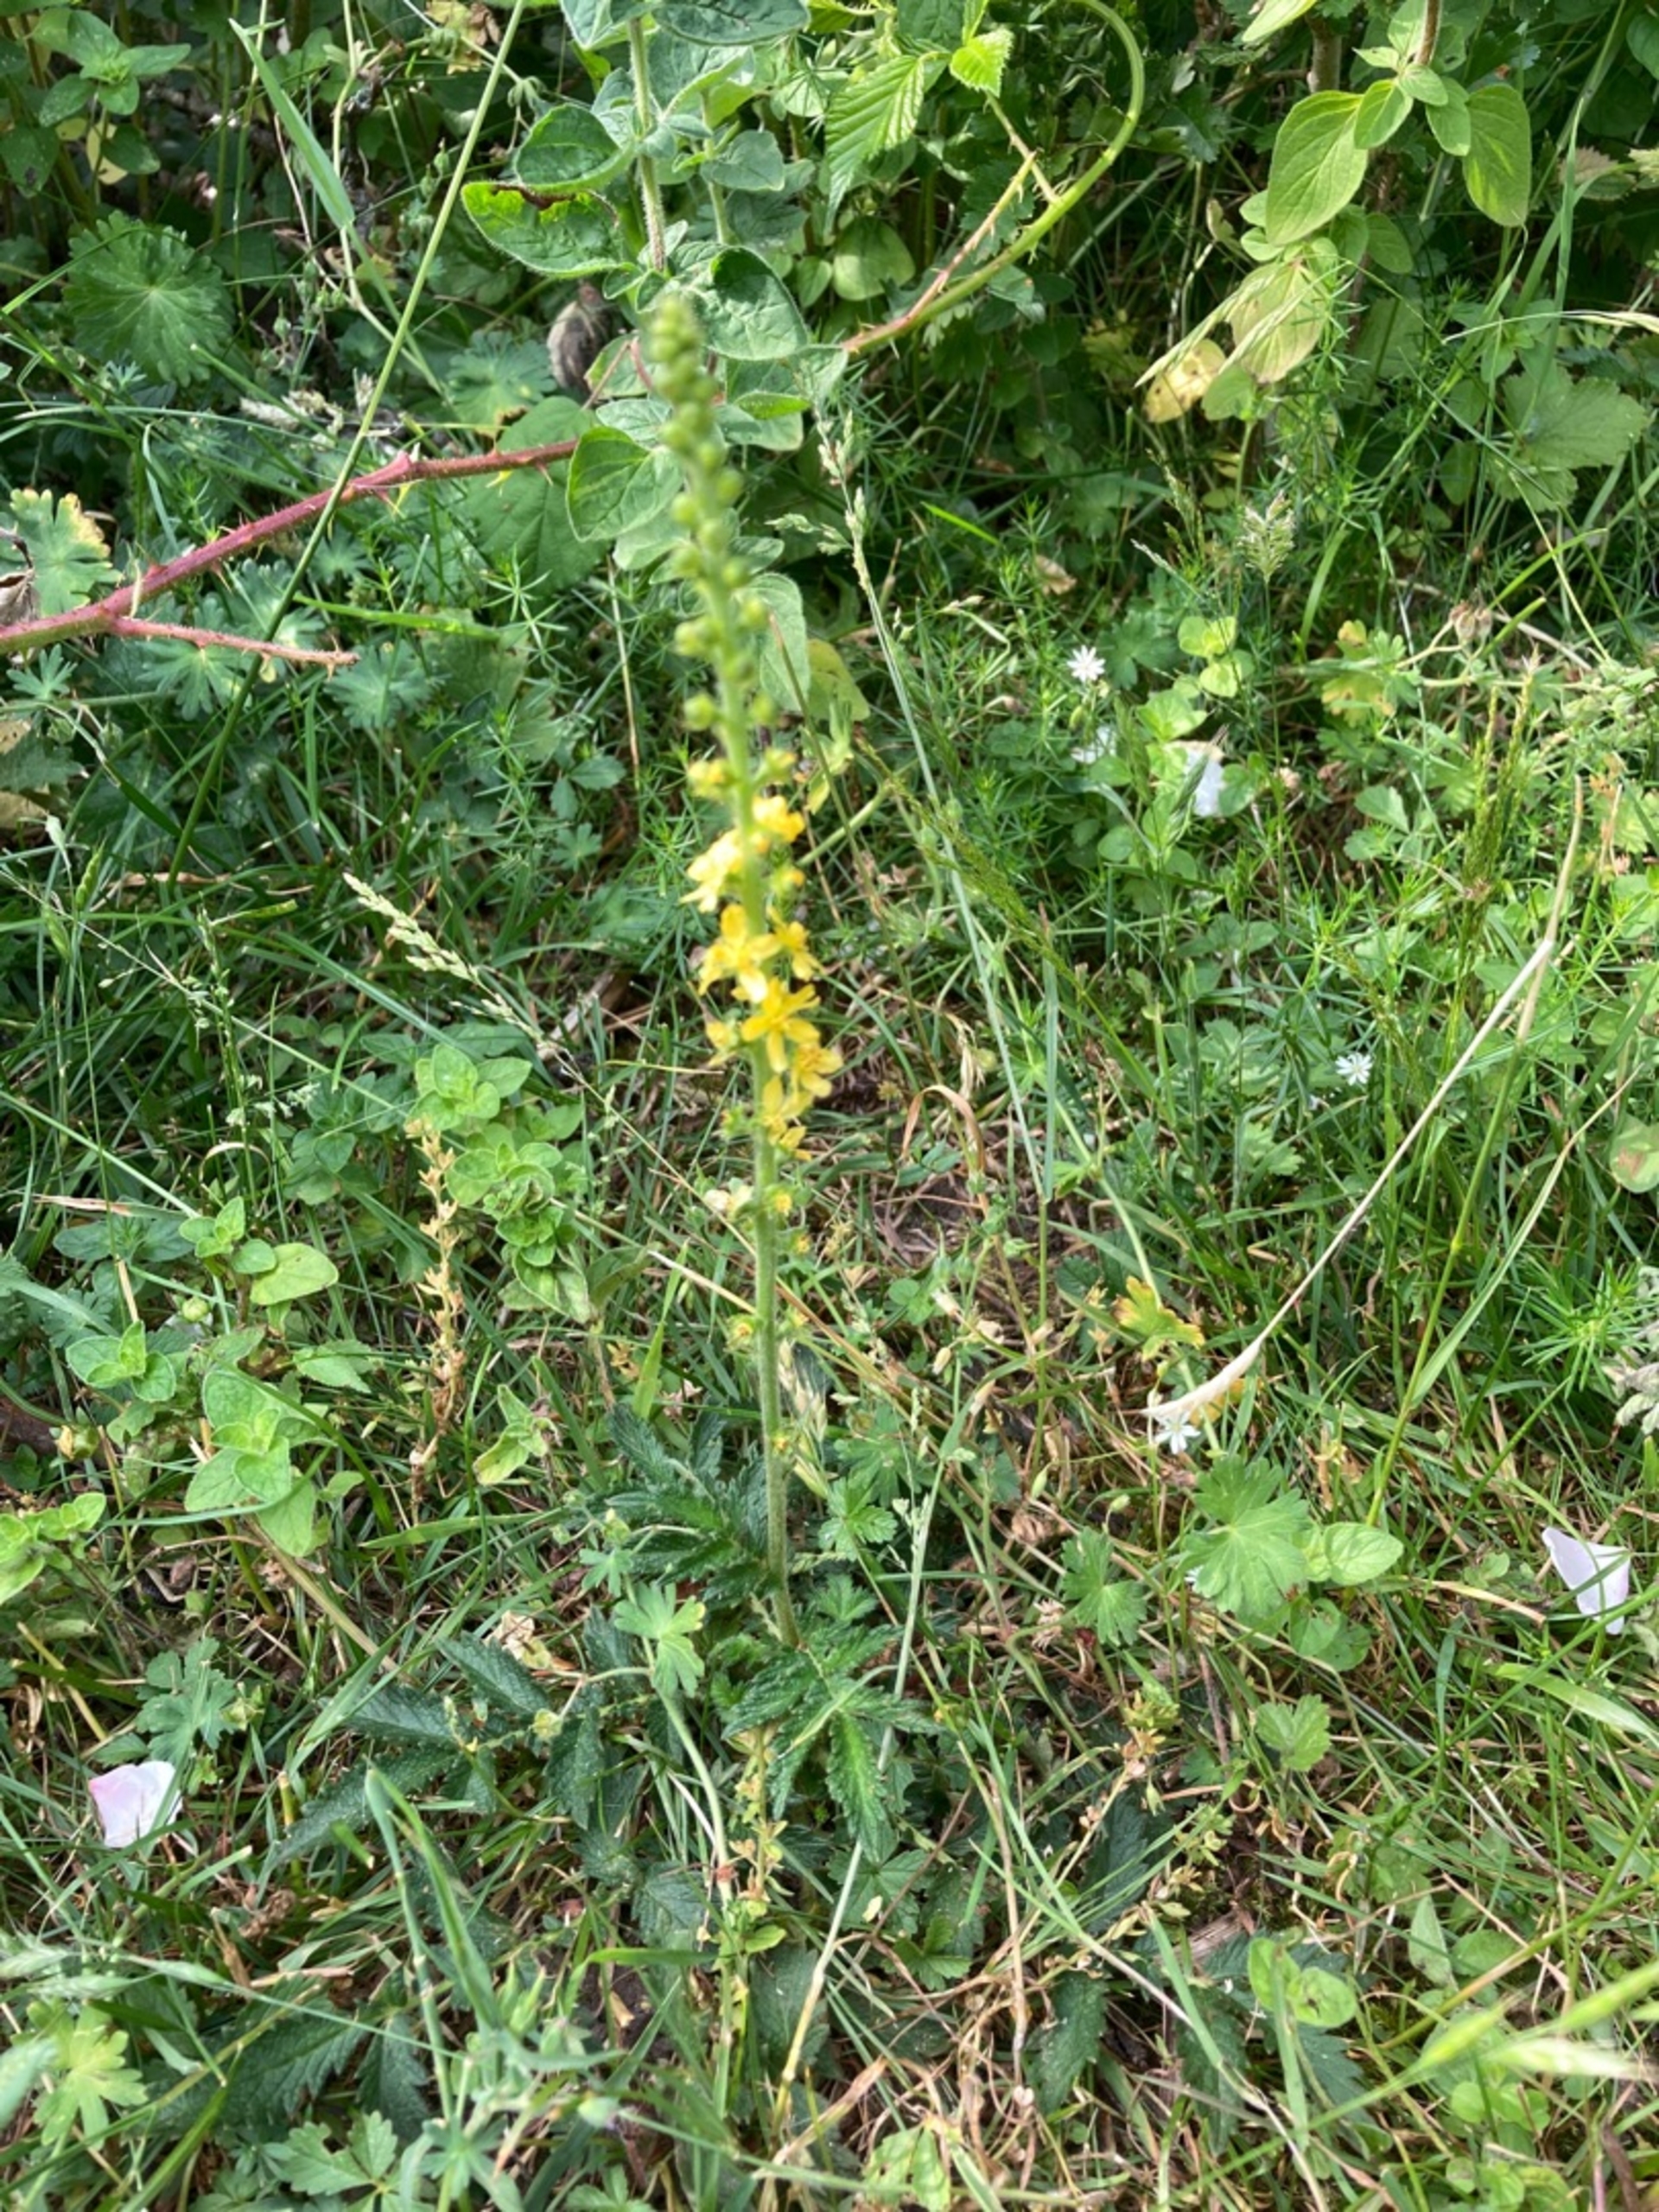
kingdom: Plantae
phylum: Tracheophyta
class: Magnoliopsida
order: Rosales
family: Rosaceae
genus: Agrimonia
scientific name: Agrimonia eupatoria
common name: Almindelig agermåne
